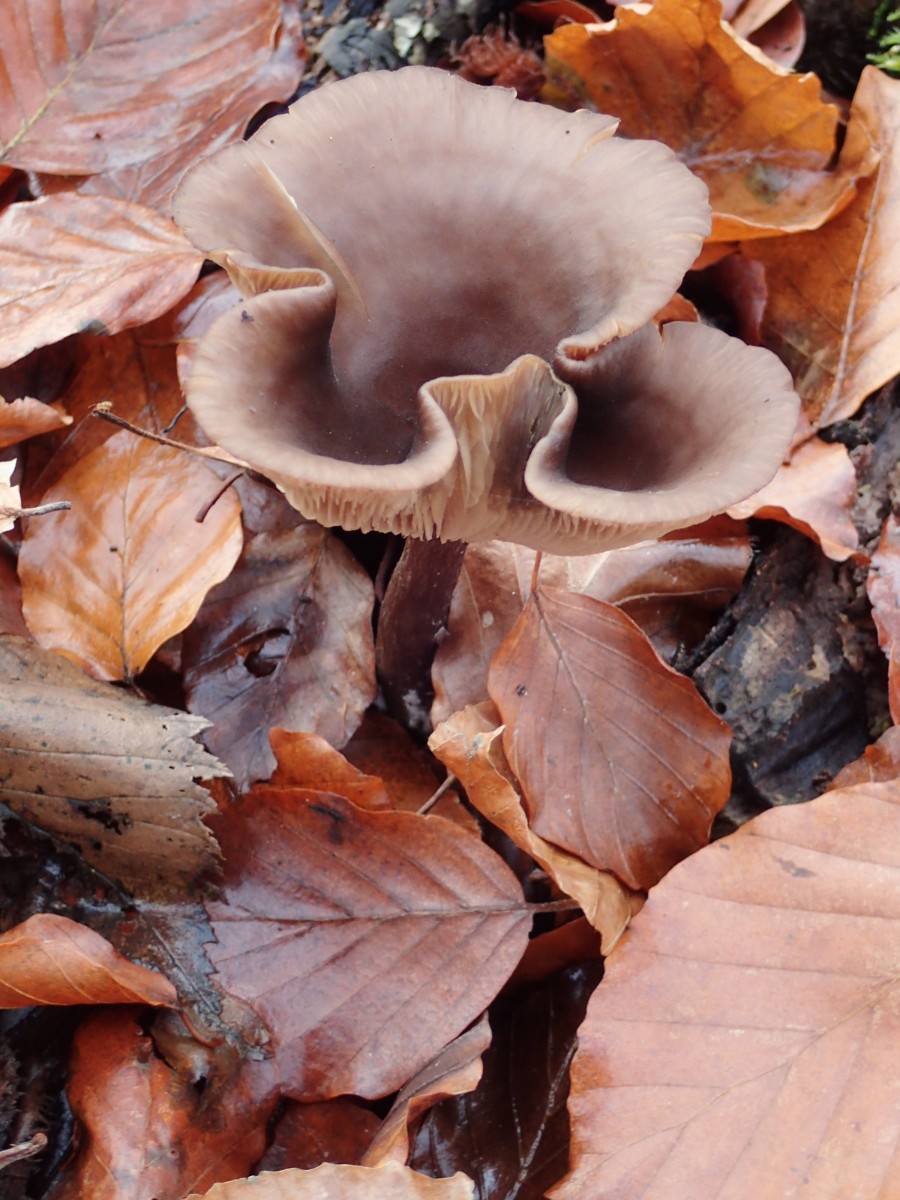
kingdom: Fungi
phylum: Basidiomycota
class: Agaricomycetes
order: Agaricales
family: Pseudoclitocybaceae
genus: Pseudoclitocybe
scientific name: Pseudoclitocybe cyathiformis
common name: almindelig bægertragthat
